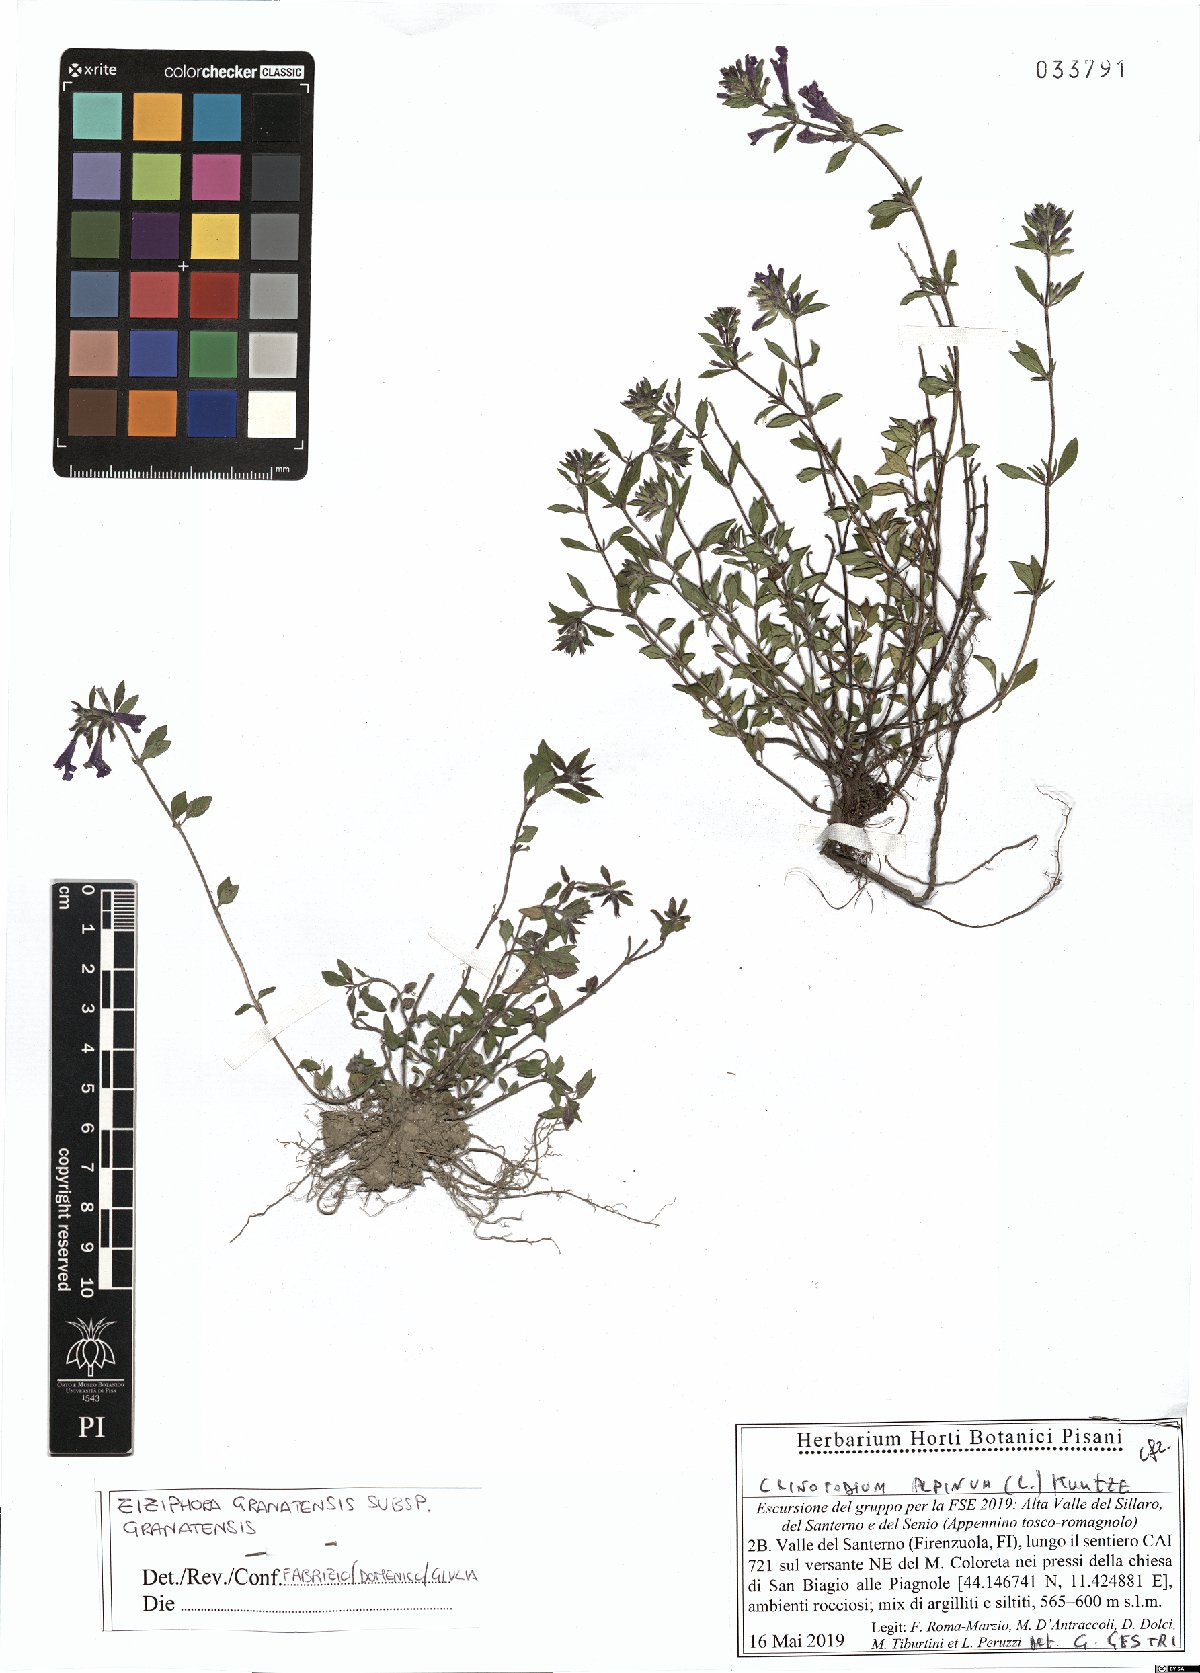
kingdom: Plantae
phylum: Tracheophyta
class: Magnoliopsida
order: Lamiales
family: Lamiaceae
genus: Clinopodium
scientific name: Clinopodium alpinum
